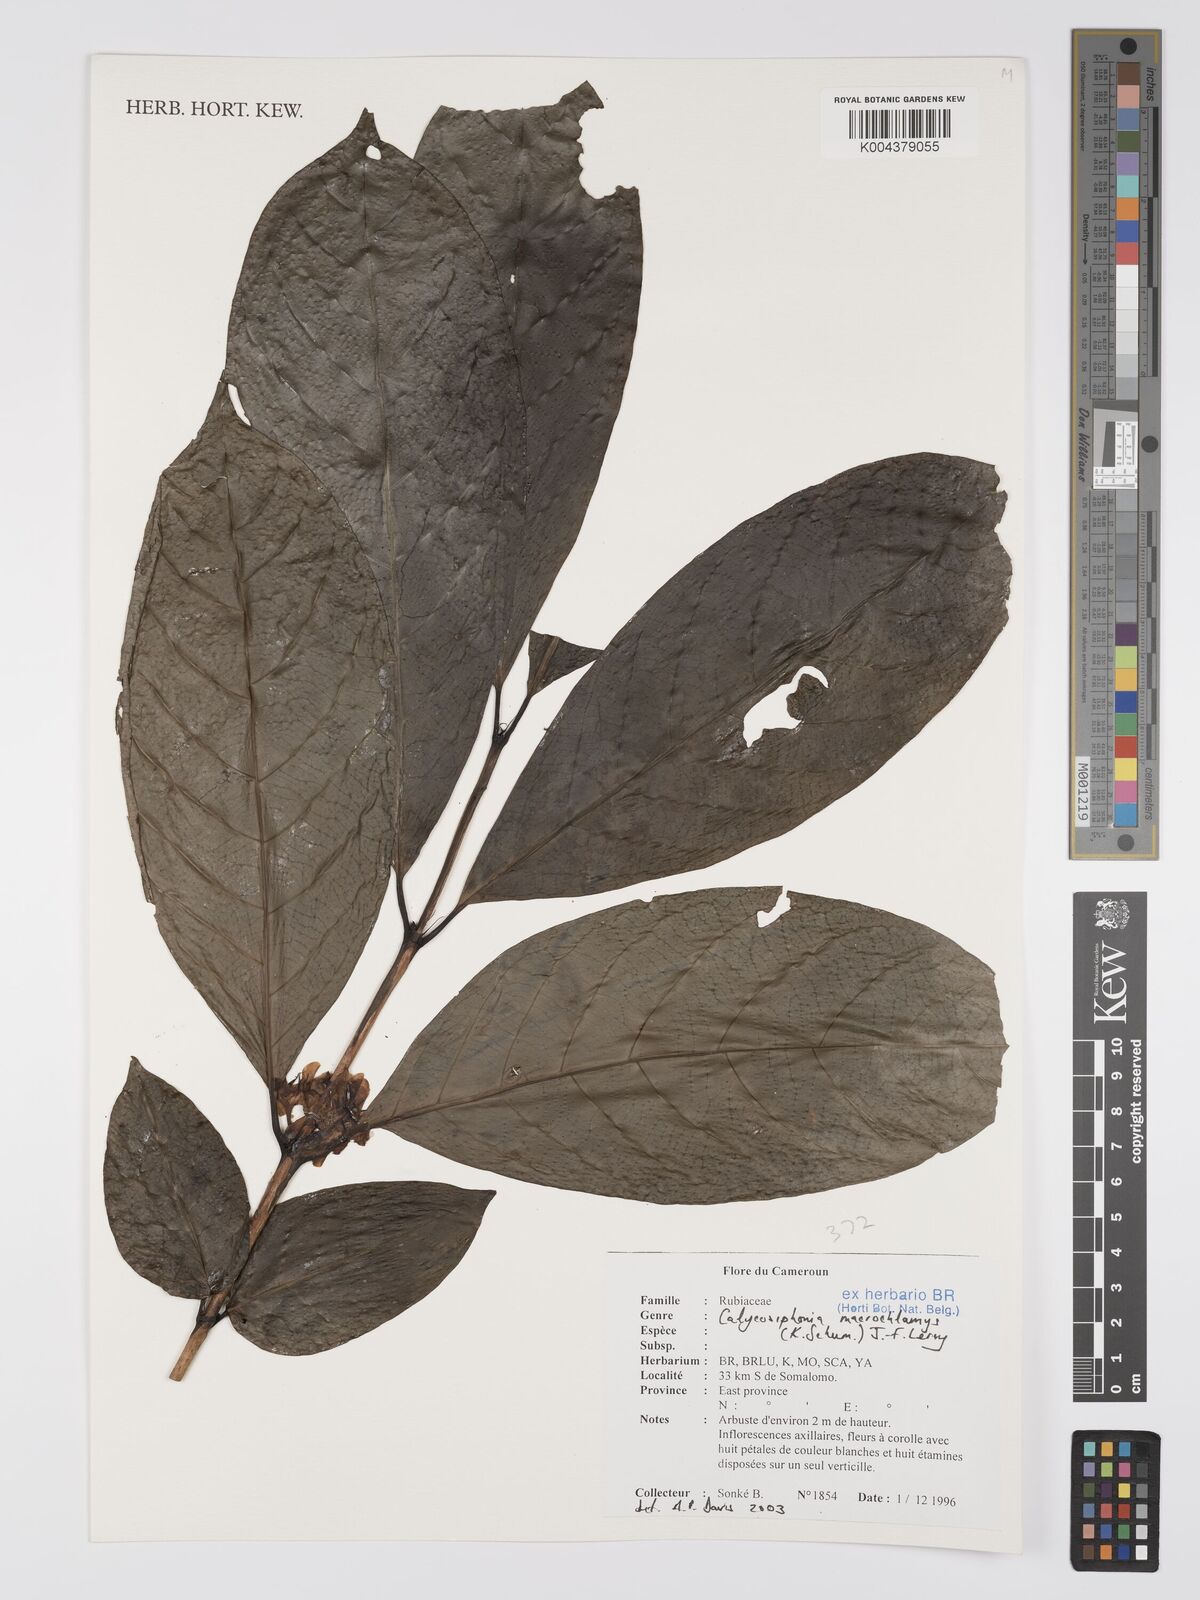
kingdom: Plantae
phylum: Tracheophyta
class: Magnoliopsida
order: Gentianales
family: Rubiaceae
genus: Calycosiphonia
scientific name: Calycosiphonia macrochlamys
